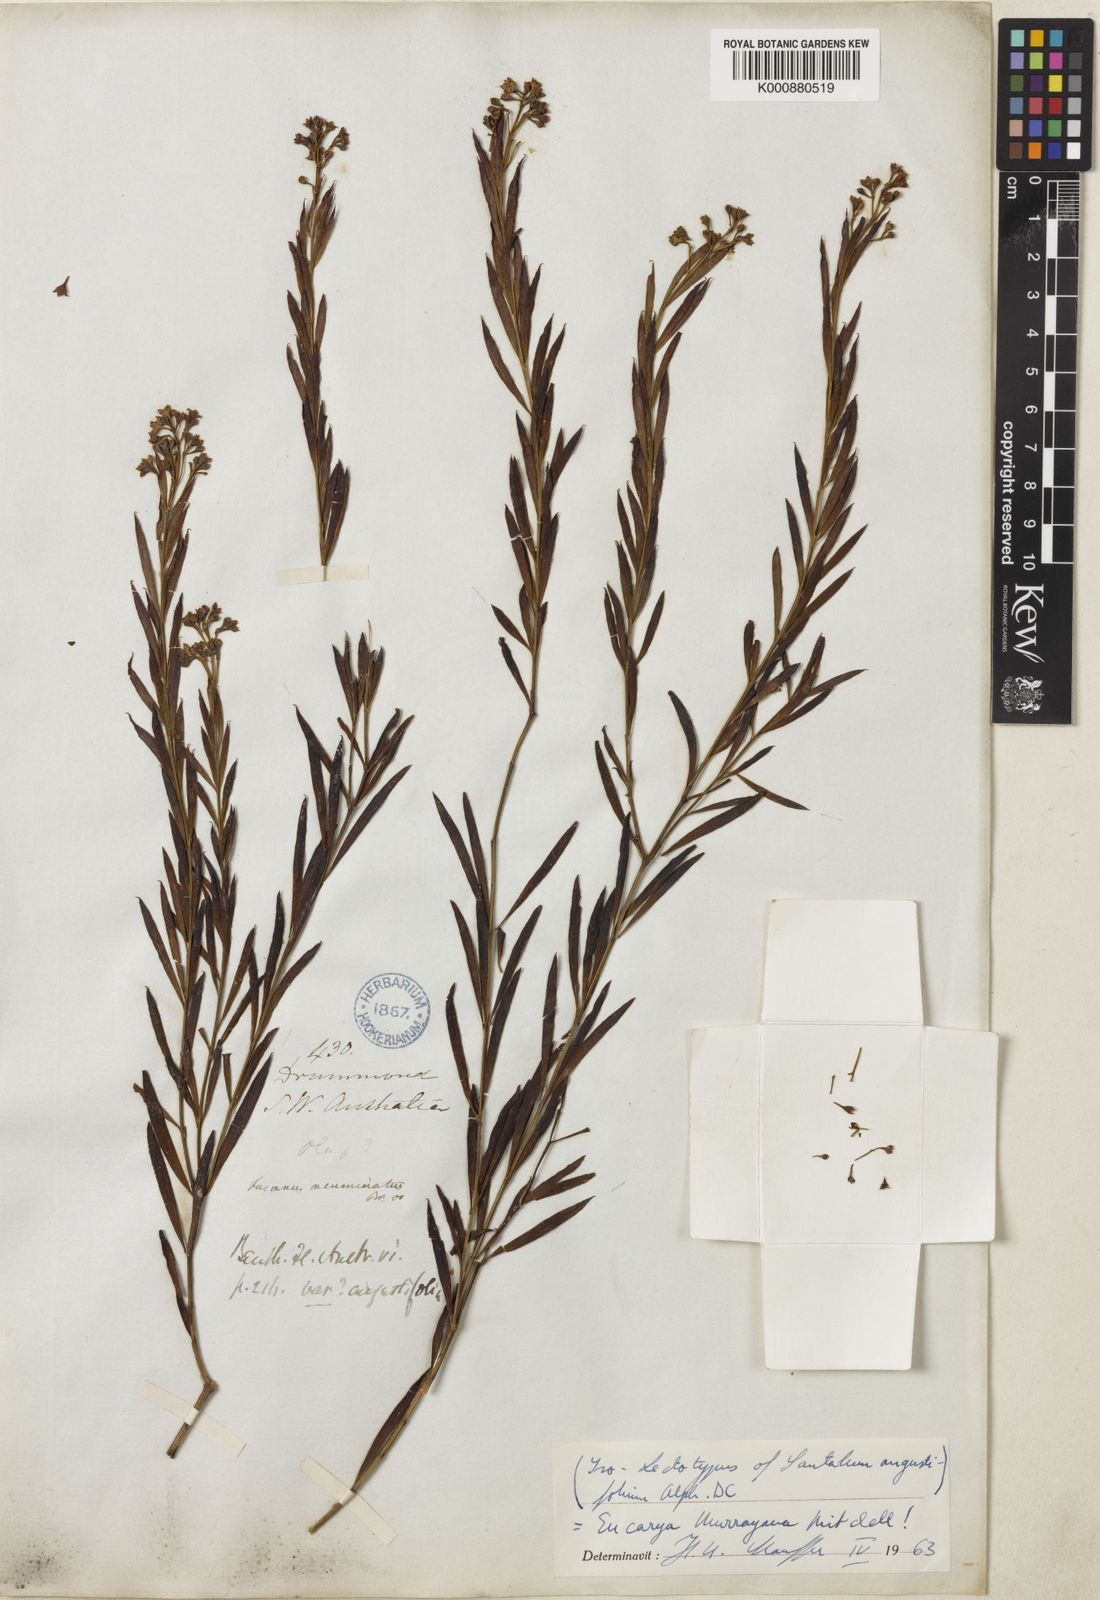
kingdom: Plantae
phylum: Tracheophyta
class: Magnoliopsida
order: Santalales
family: Santalaceae
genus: Santalum
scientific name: Santalum murrayanum
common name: Bitter quandong
